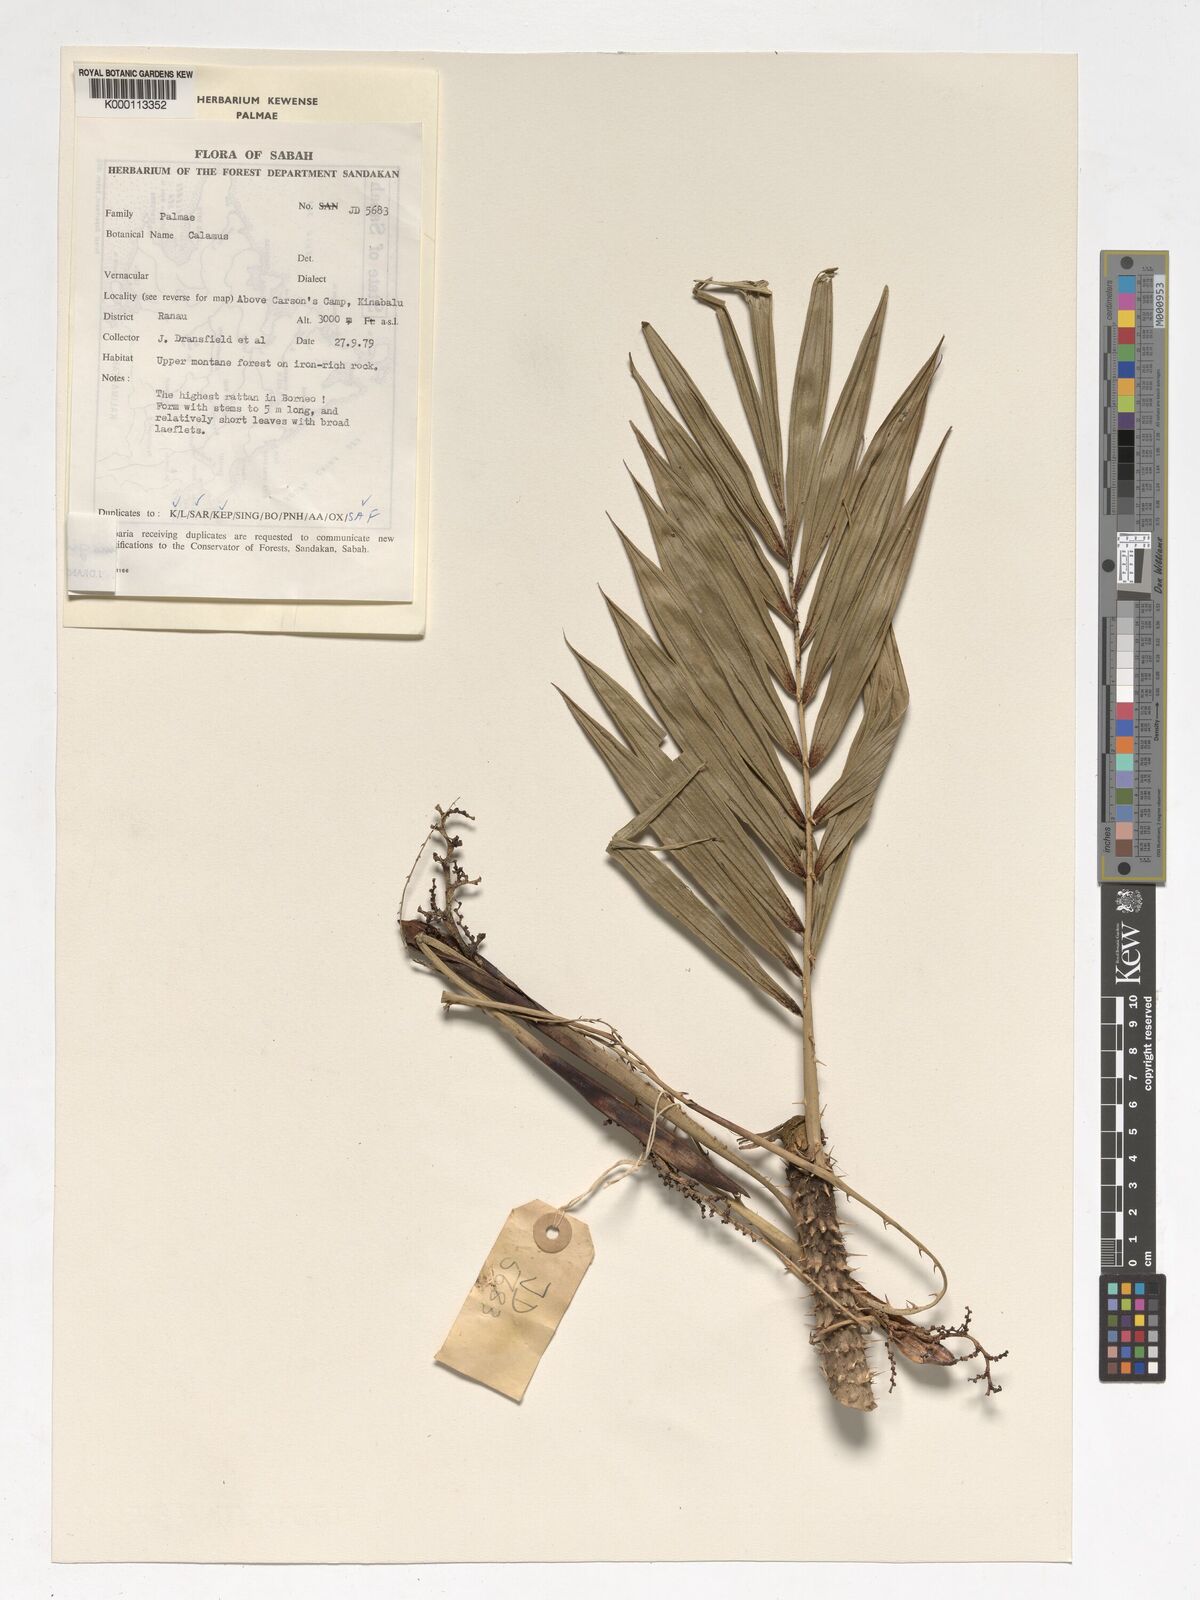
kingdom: Plantae
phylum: Tracheophyta
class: Liliopsida
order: Arecales
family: Arecaceae
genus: Calamus
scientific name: Calamus gibbsianus
